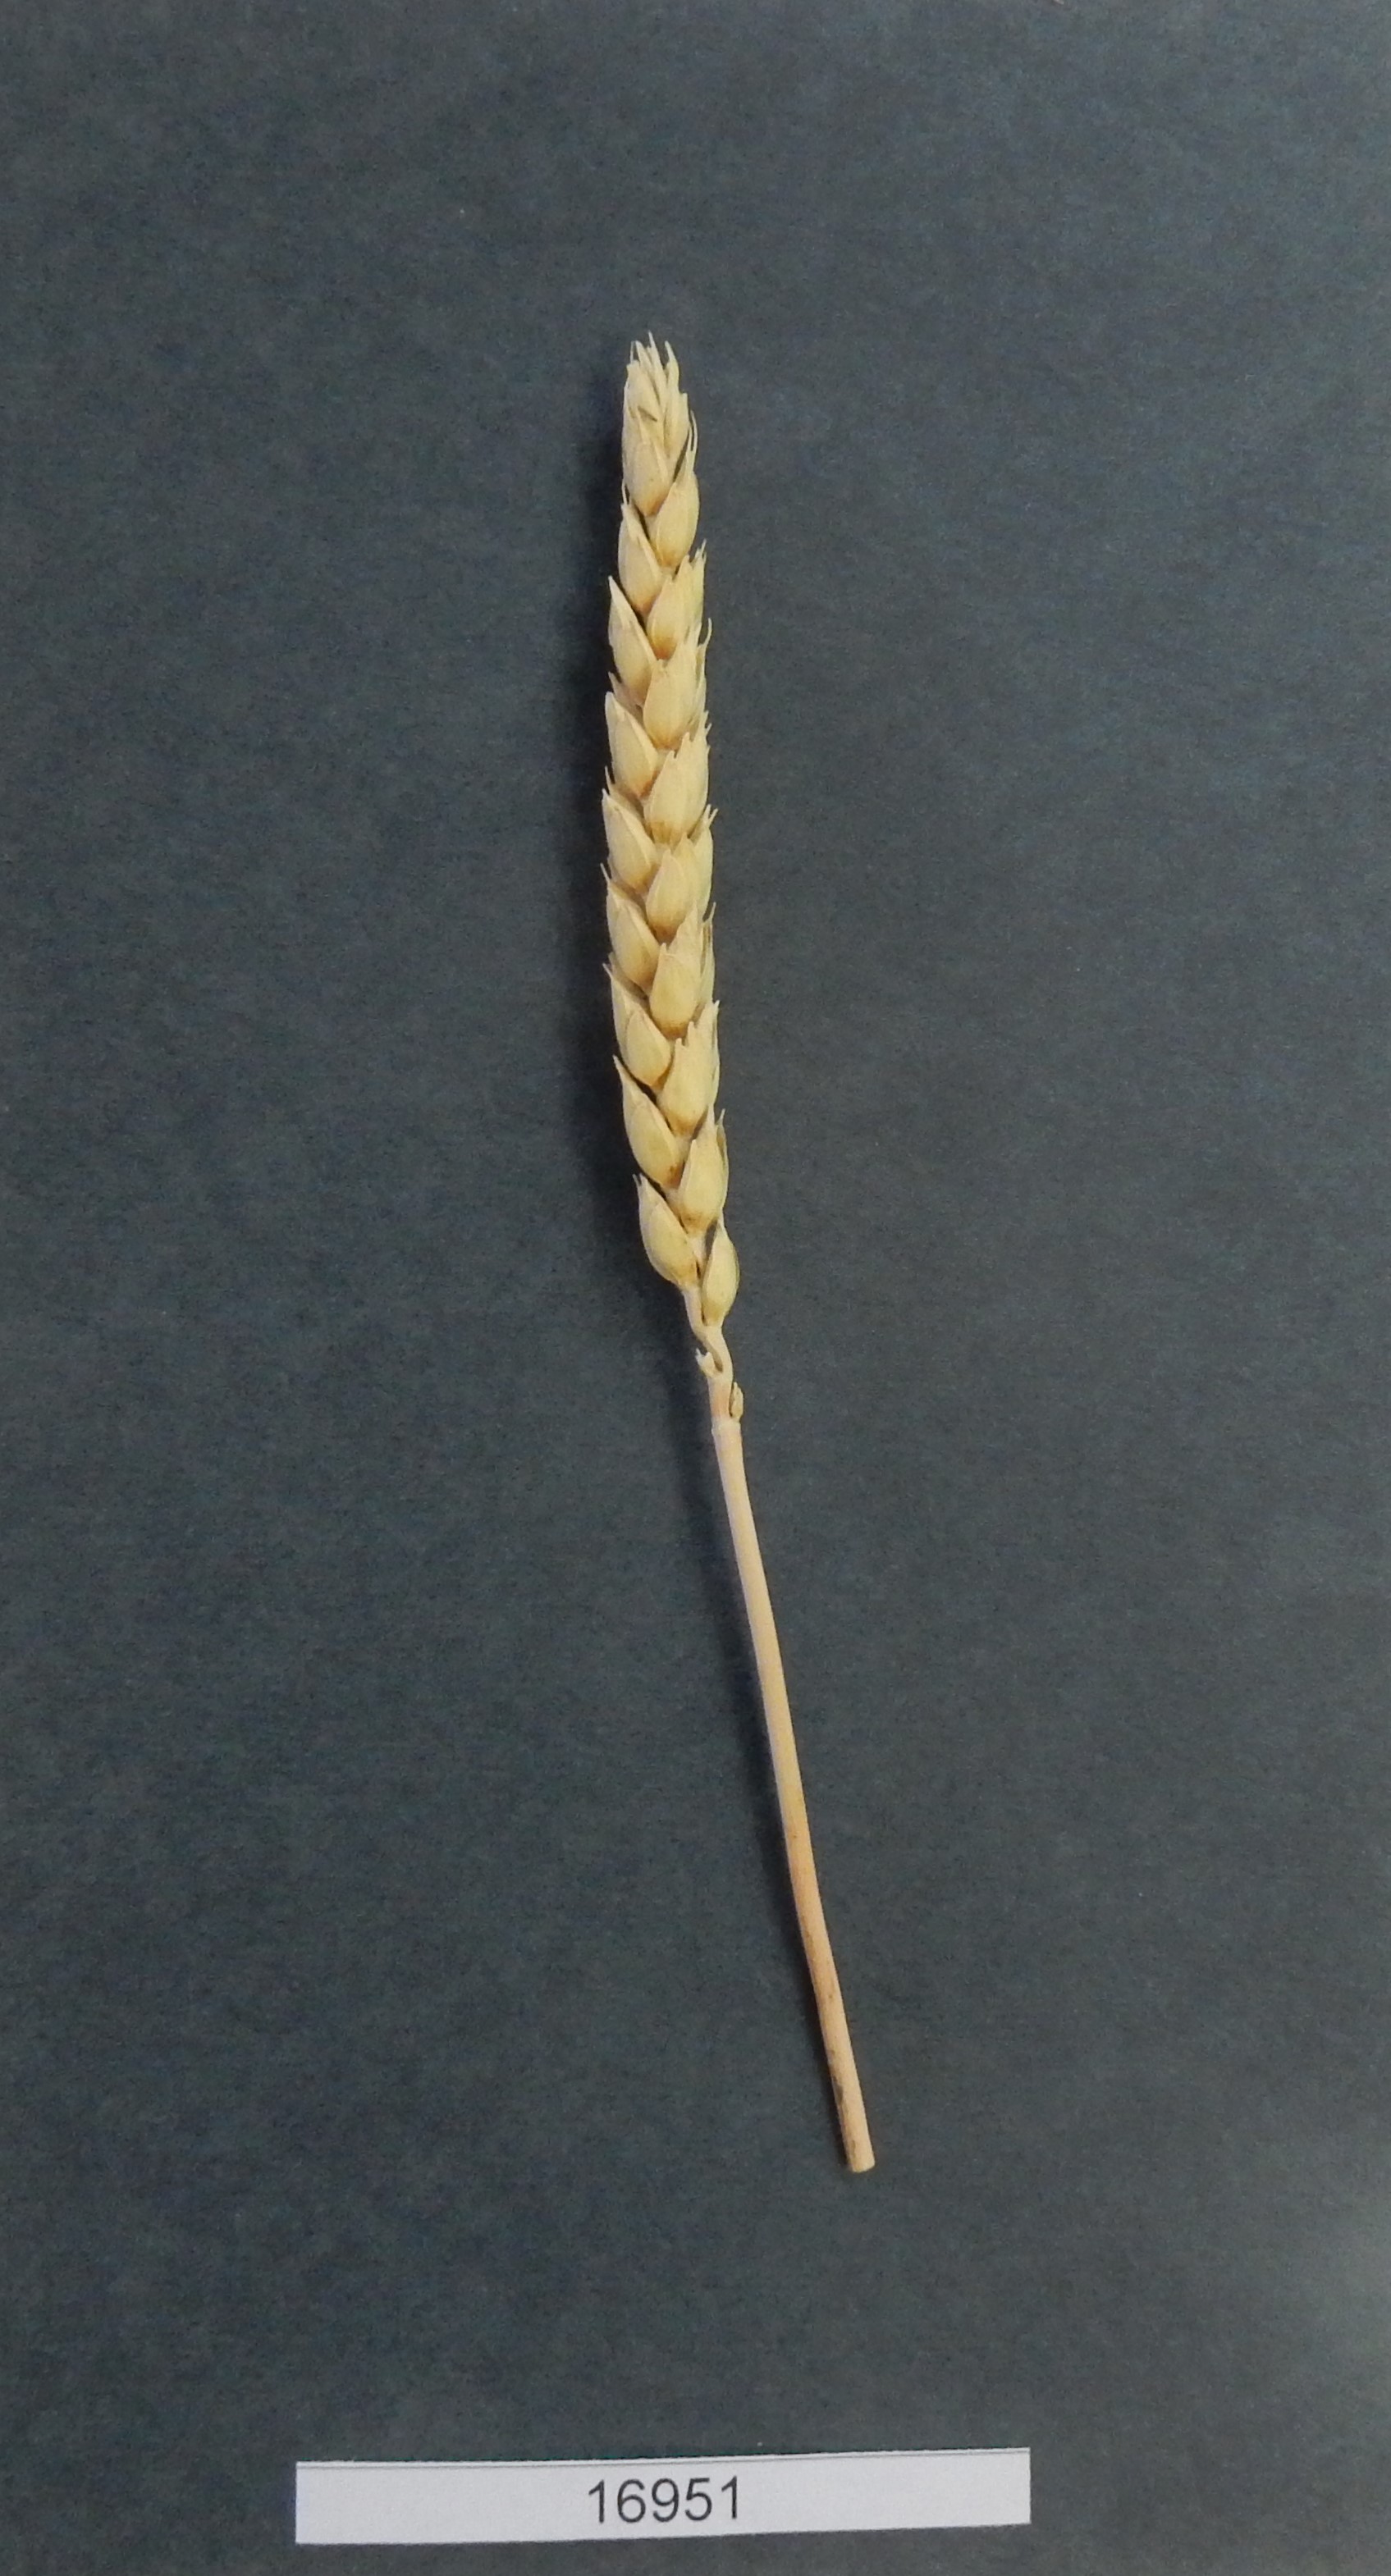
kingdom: Plantae
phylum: Tracheophyta
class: Liliopsida
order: Poales
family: Poaceae
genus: Triticum
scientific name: Triticum
